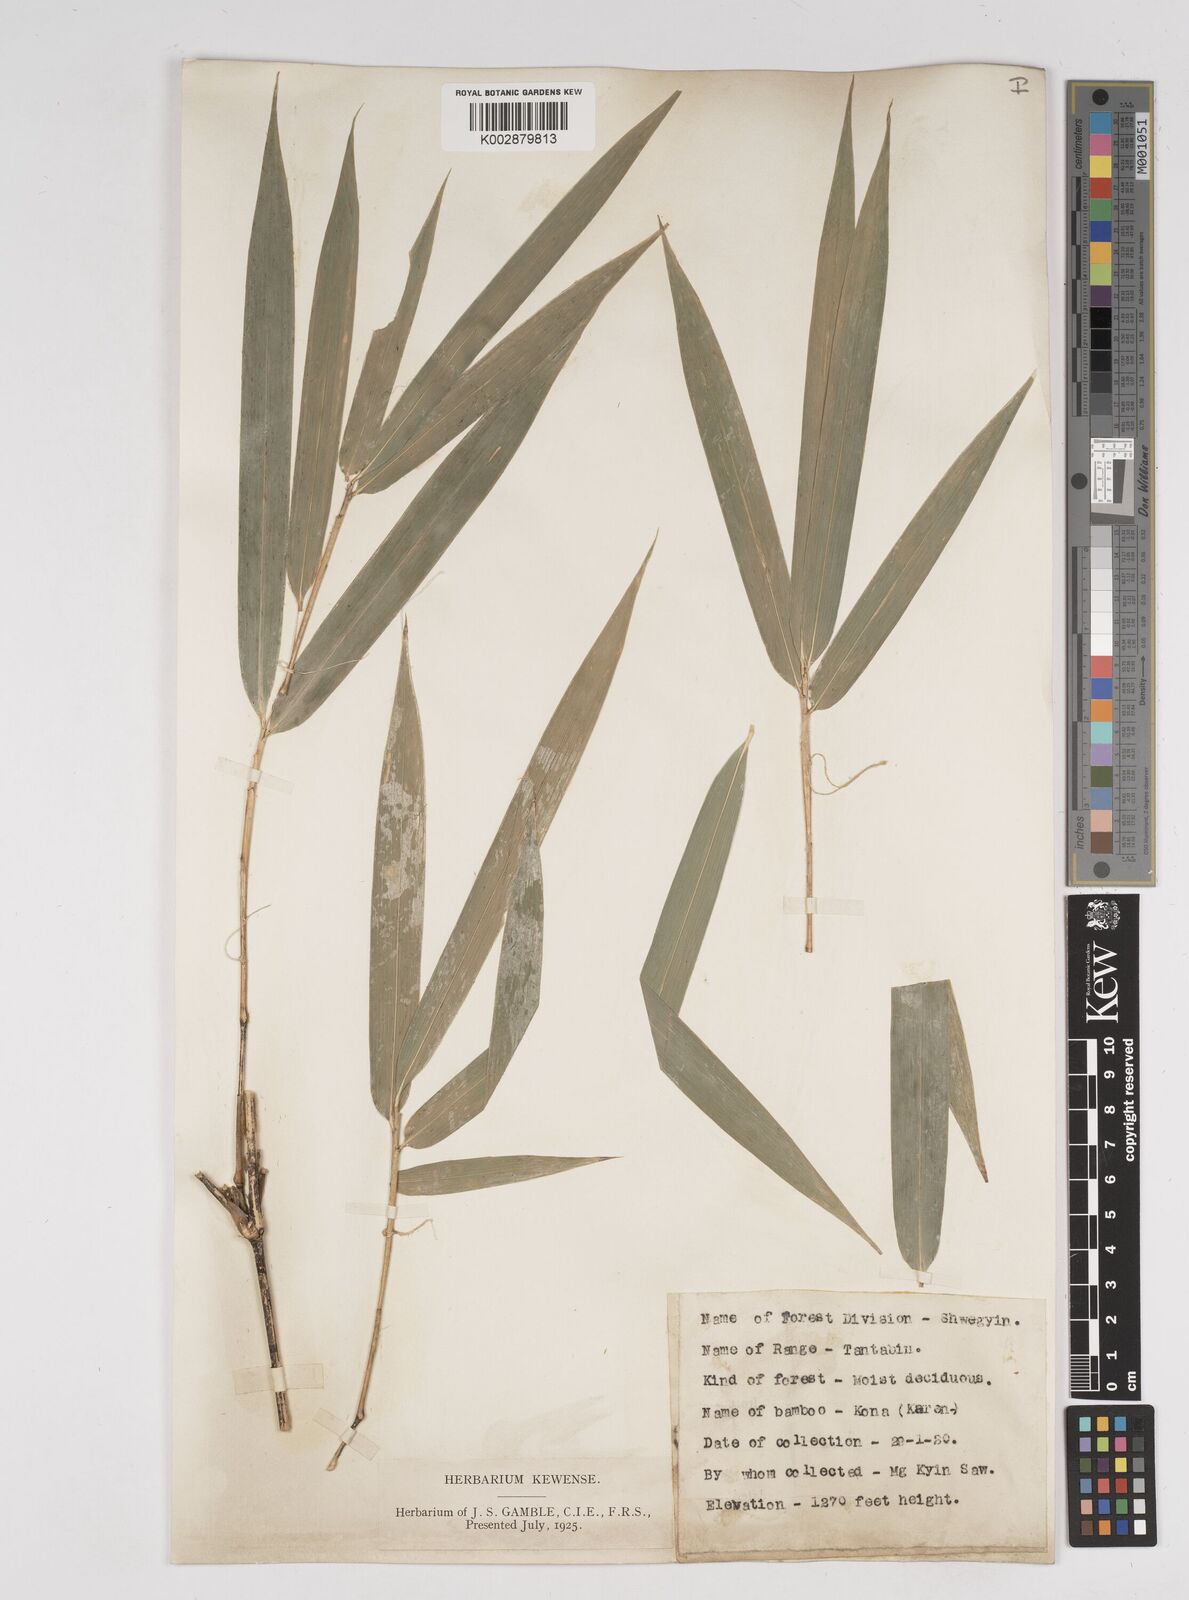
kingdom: Plantae
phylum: Tracheophyta
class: Liliopsida
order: Poales
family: Poaceae
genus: Gigantochloa
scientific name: Gigantochloa macrostachya
